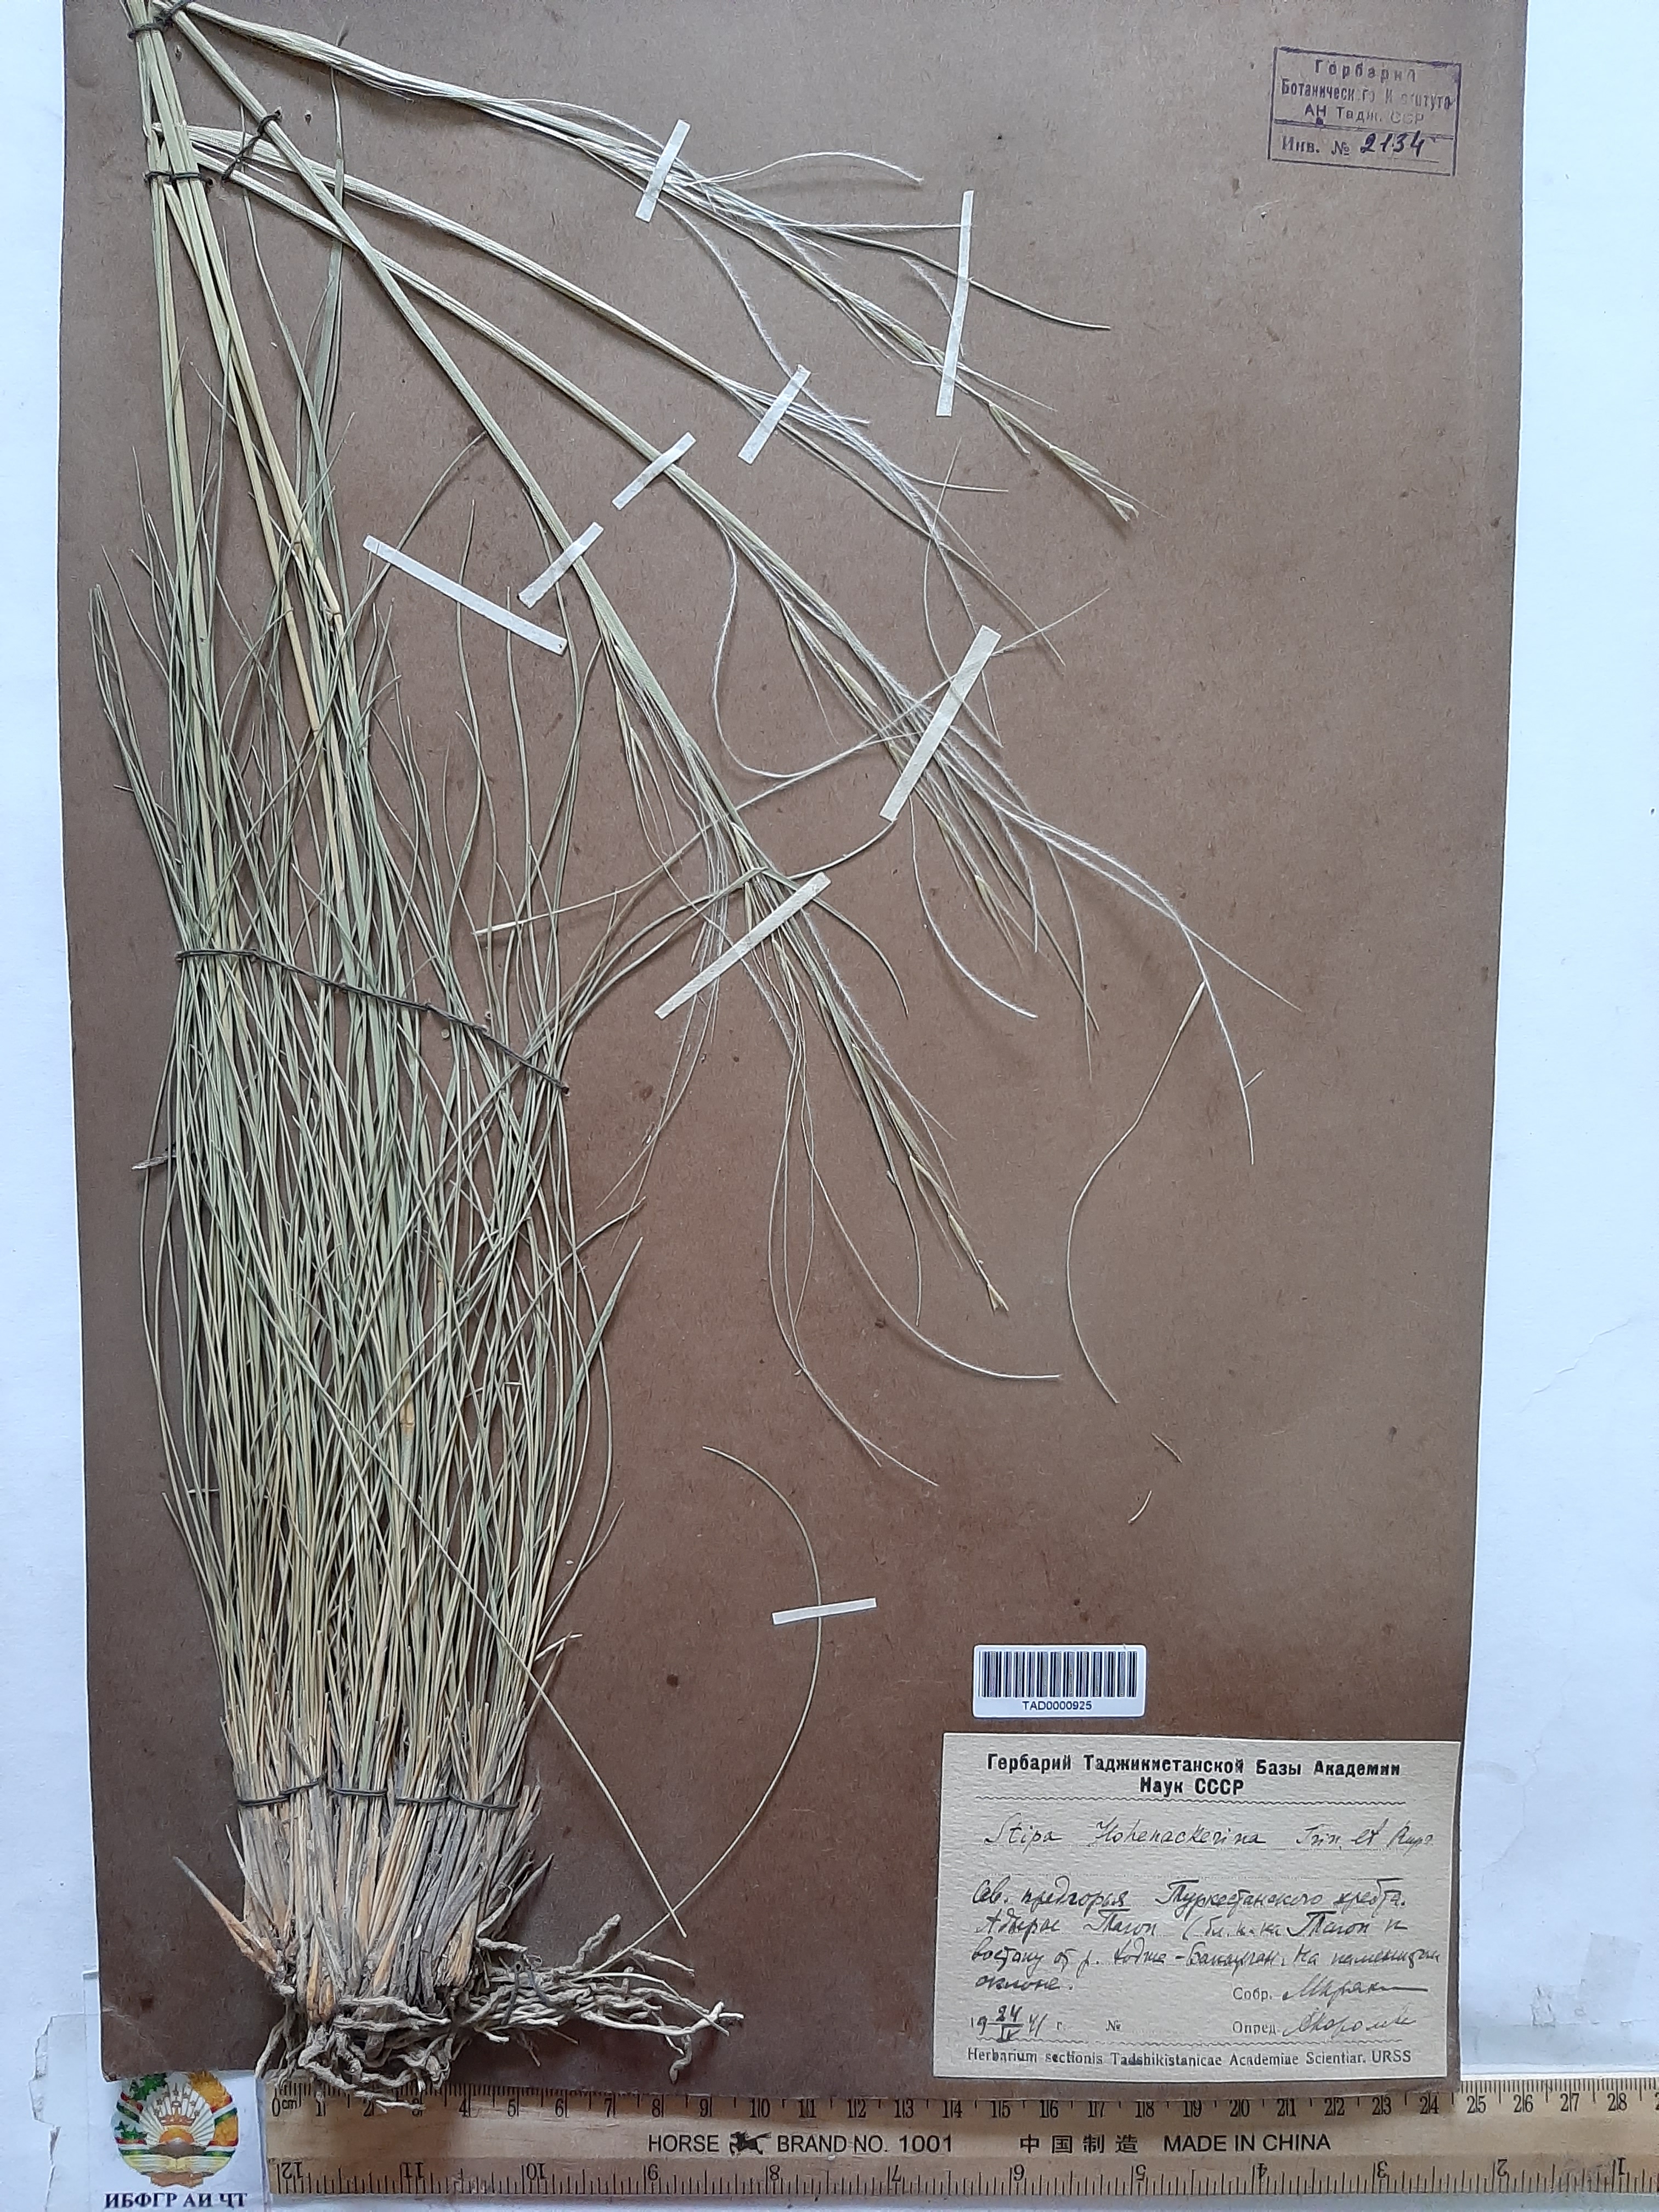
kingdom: Plantae
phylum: Tracheophyta
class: Liliopsida
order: Poales
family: Poaceae
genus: Stipa
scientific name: Stipa hohenackeriana
